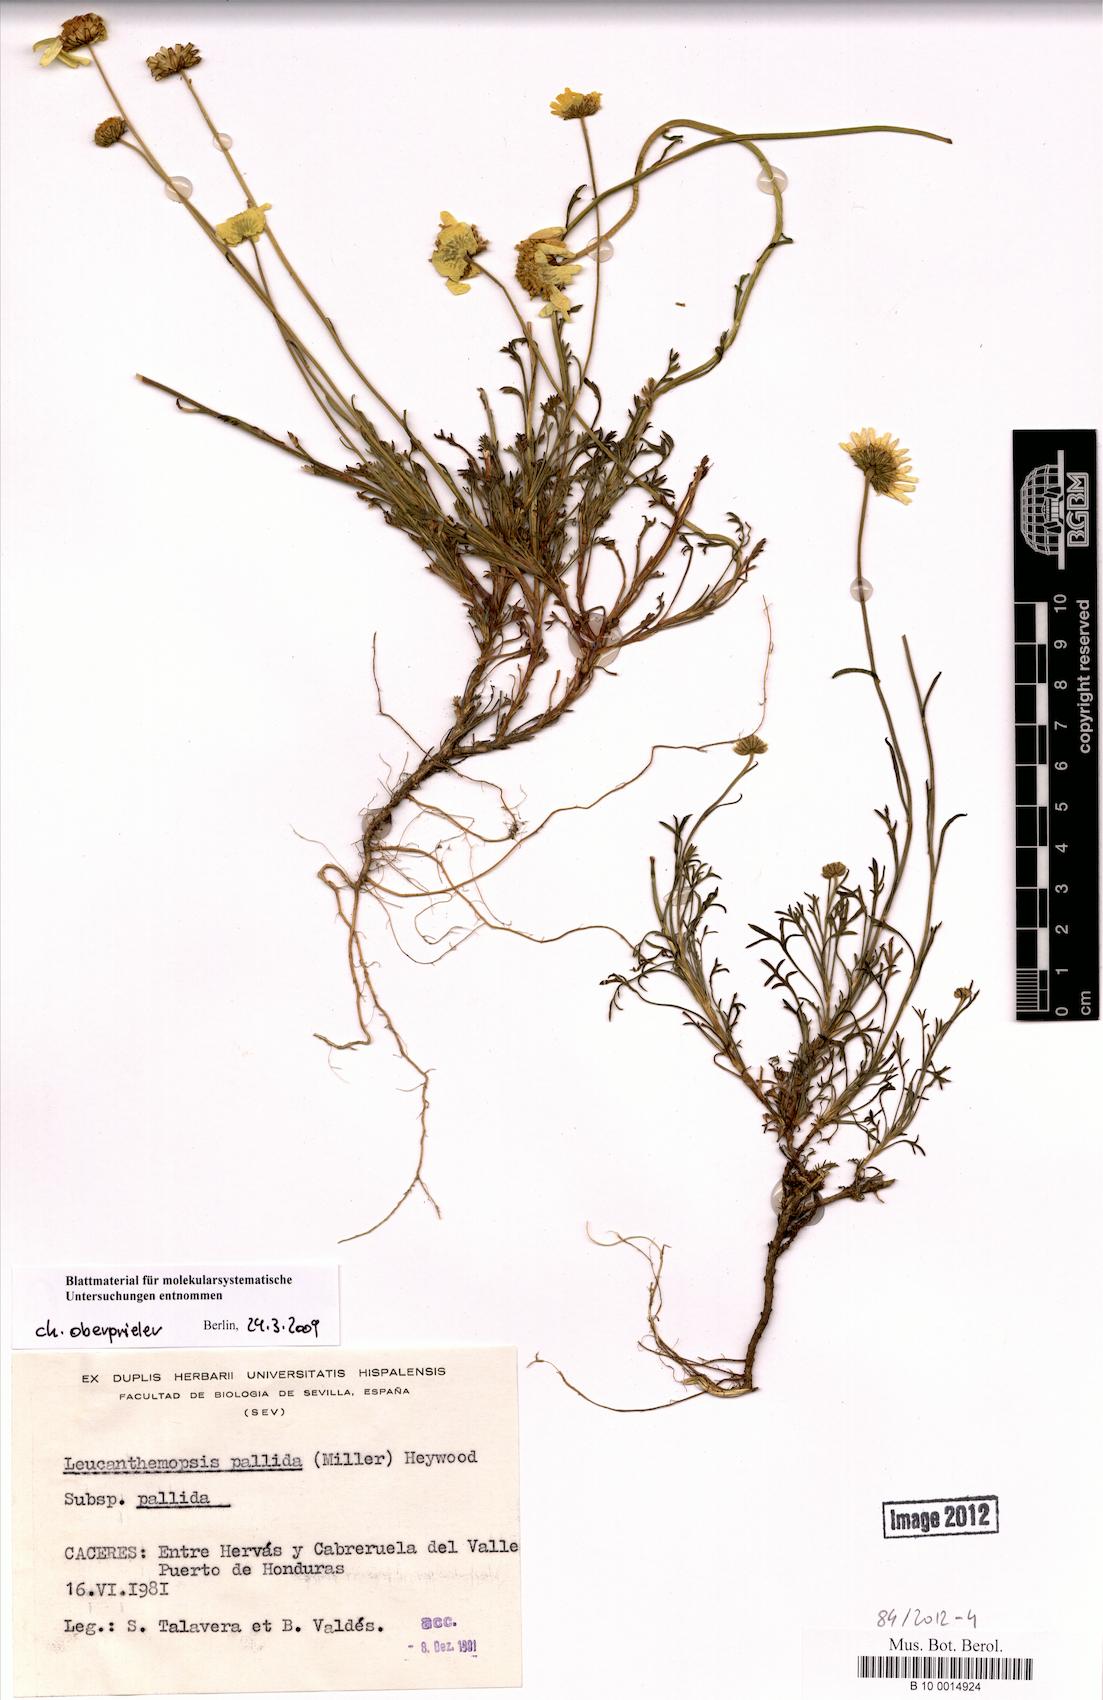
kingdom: Plantae
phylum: Tracheophyta
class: Magnoliopsida
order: Asterales
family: Asteraceae
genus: Leucanthemopsis
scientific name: Leucanthemopsis pallida
